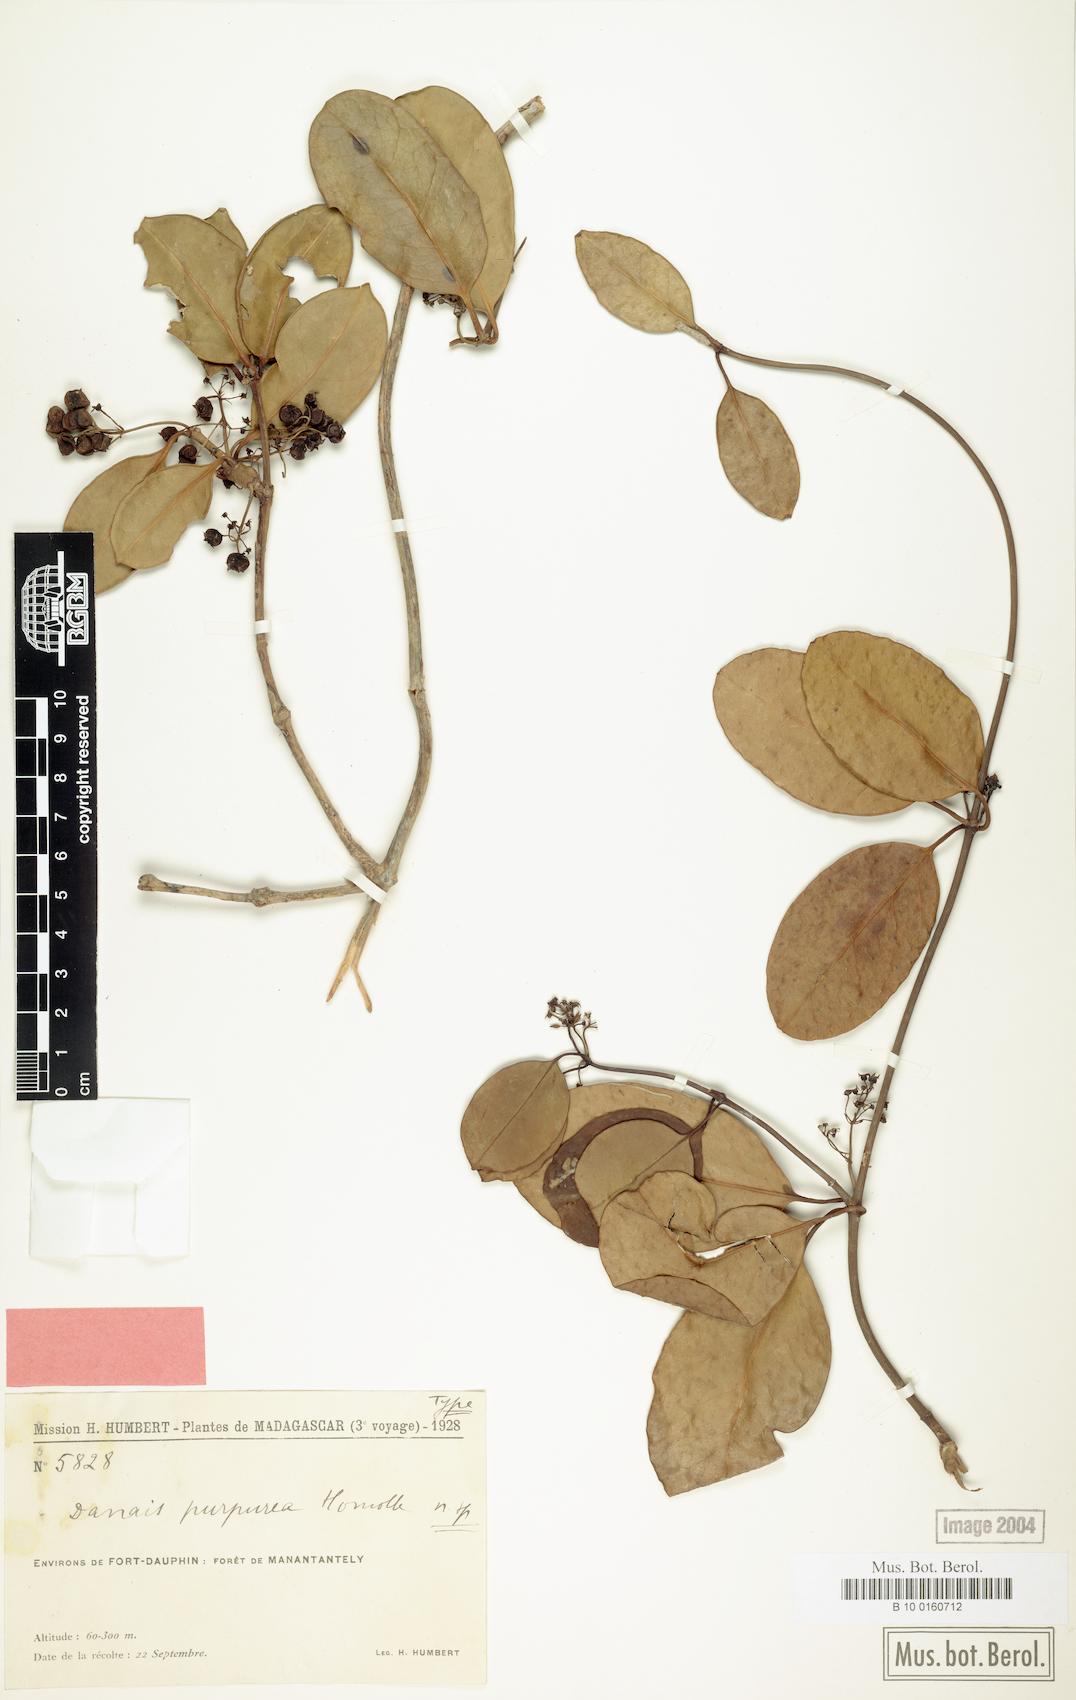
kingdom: Plantae
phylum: Tracheophyta
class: Magnoliopsida
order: Gentianales
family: Rubiaceae
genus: Danais
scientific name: Danais coronata
